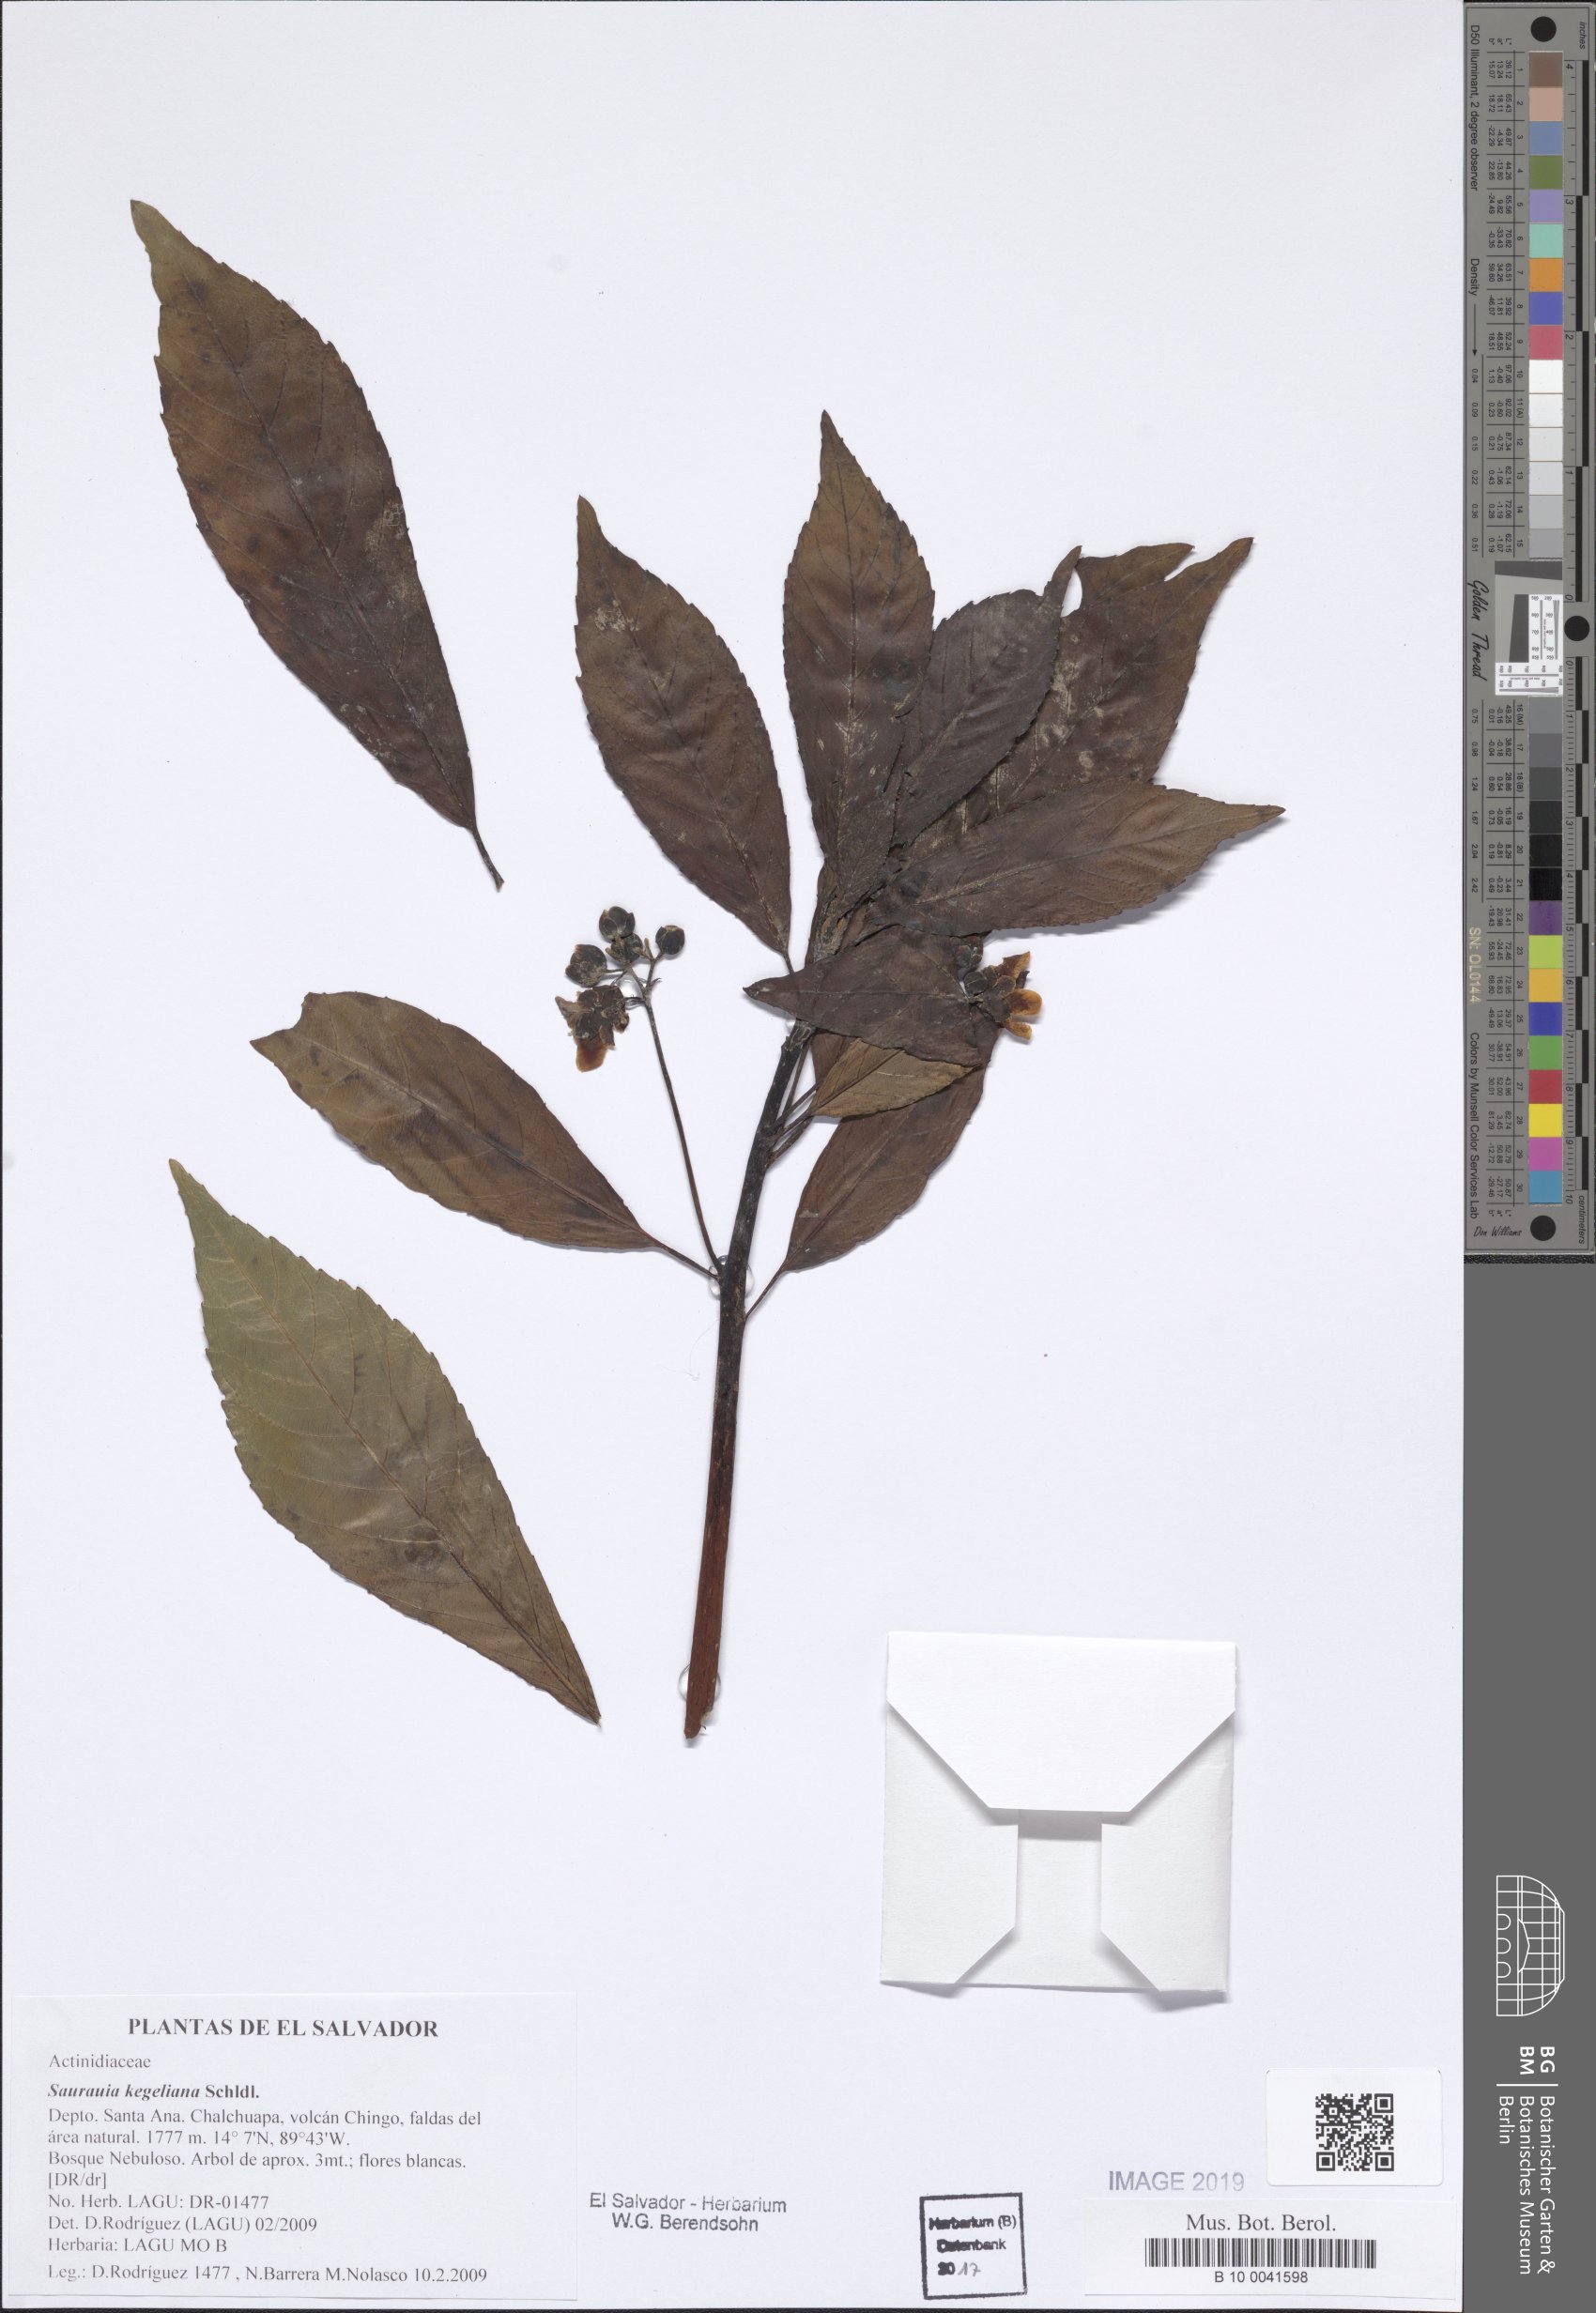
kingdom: Plantae
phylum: Tracheophyta
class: Magnoliopsida
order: Ericales
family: Actinidiaceae
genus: Saurauia
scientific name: Saurauia kegeliana
